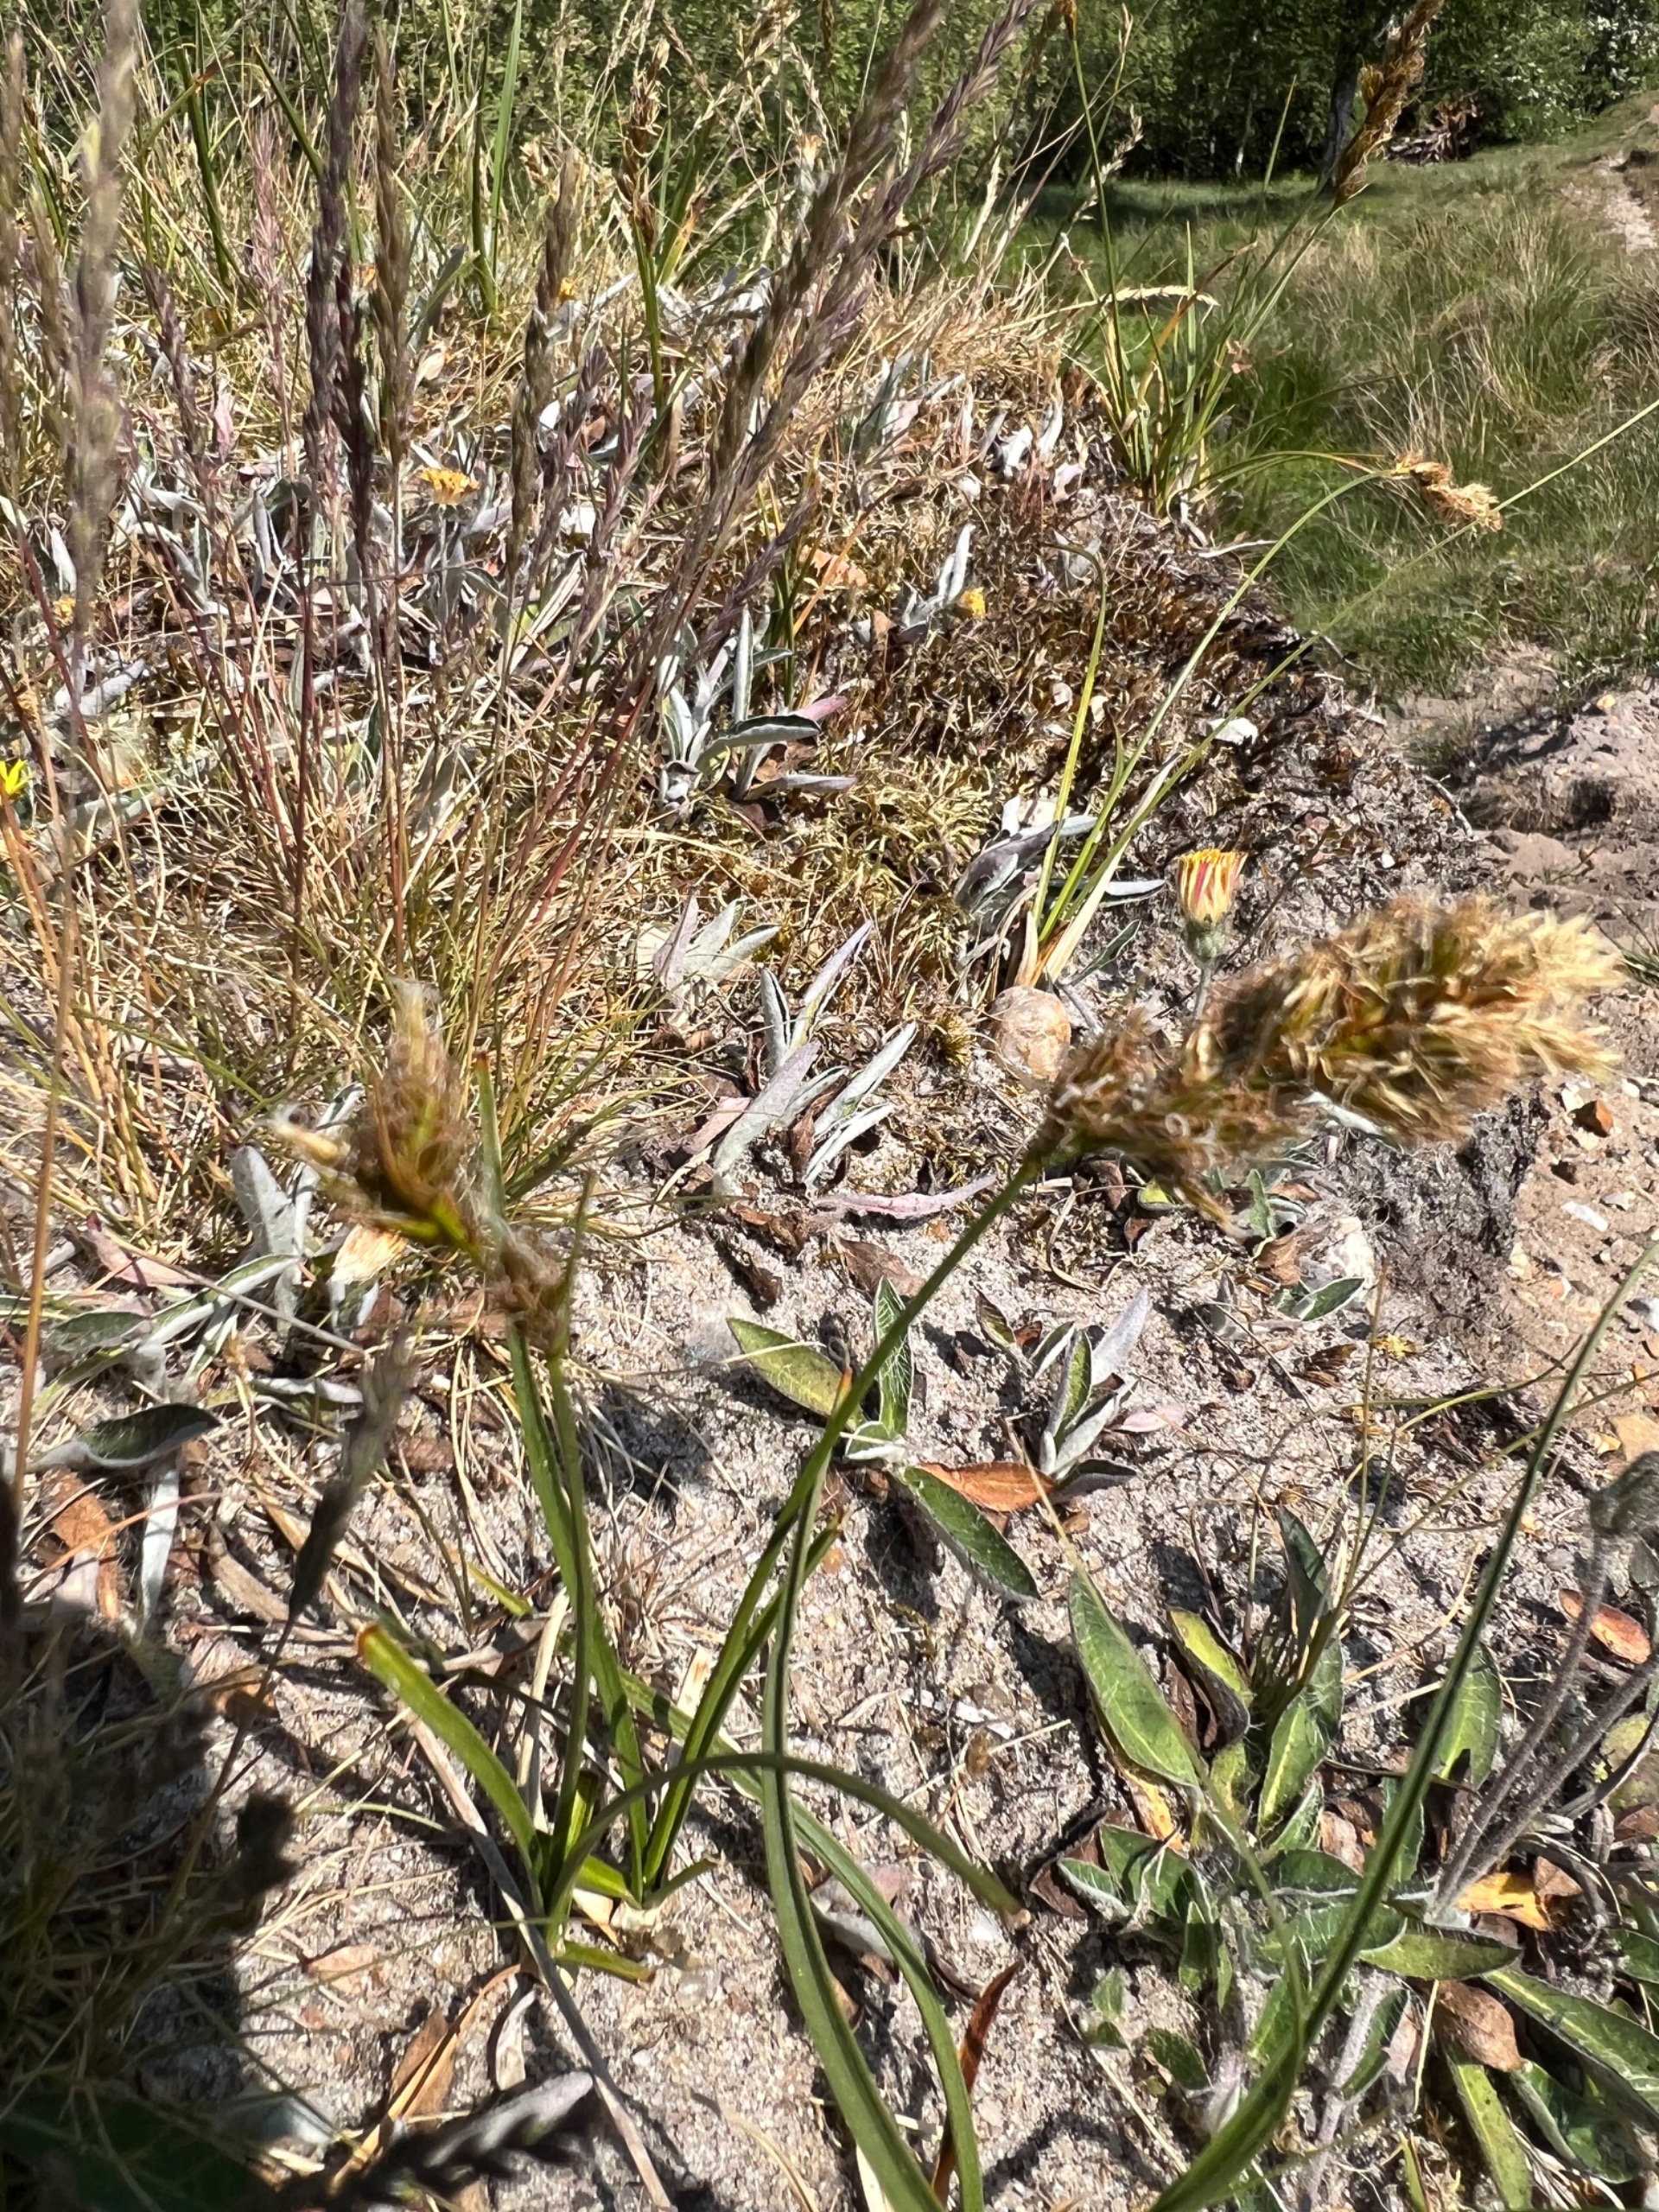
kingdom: Plantae
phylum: Tracheophyta
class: Liliopsida
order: Poales
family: Cyperaceae
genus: Carex
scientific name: Carex arenaria
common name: Sand-star
